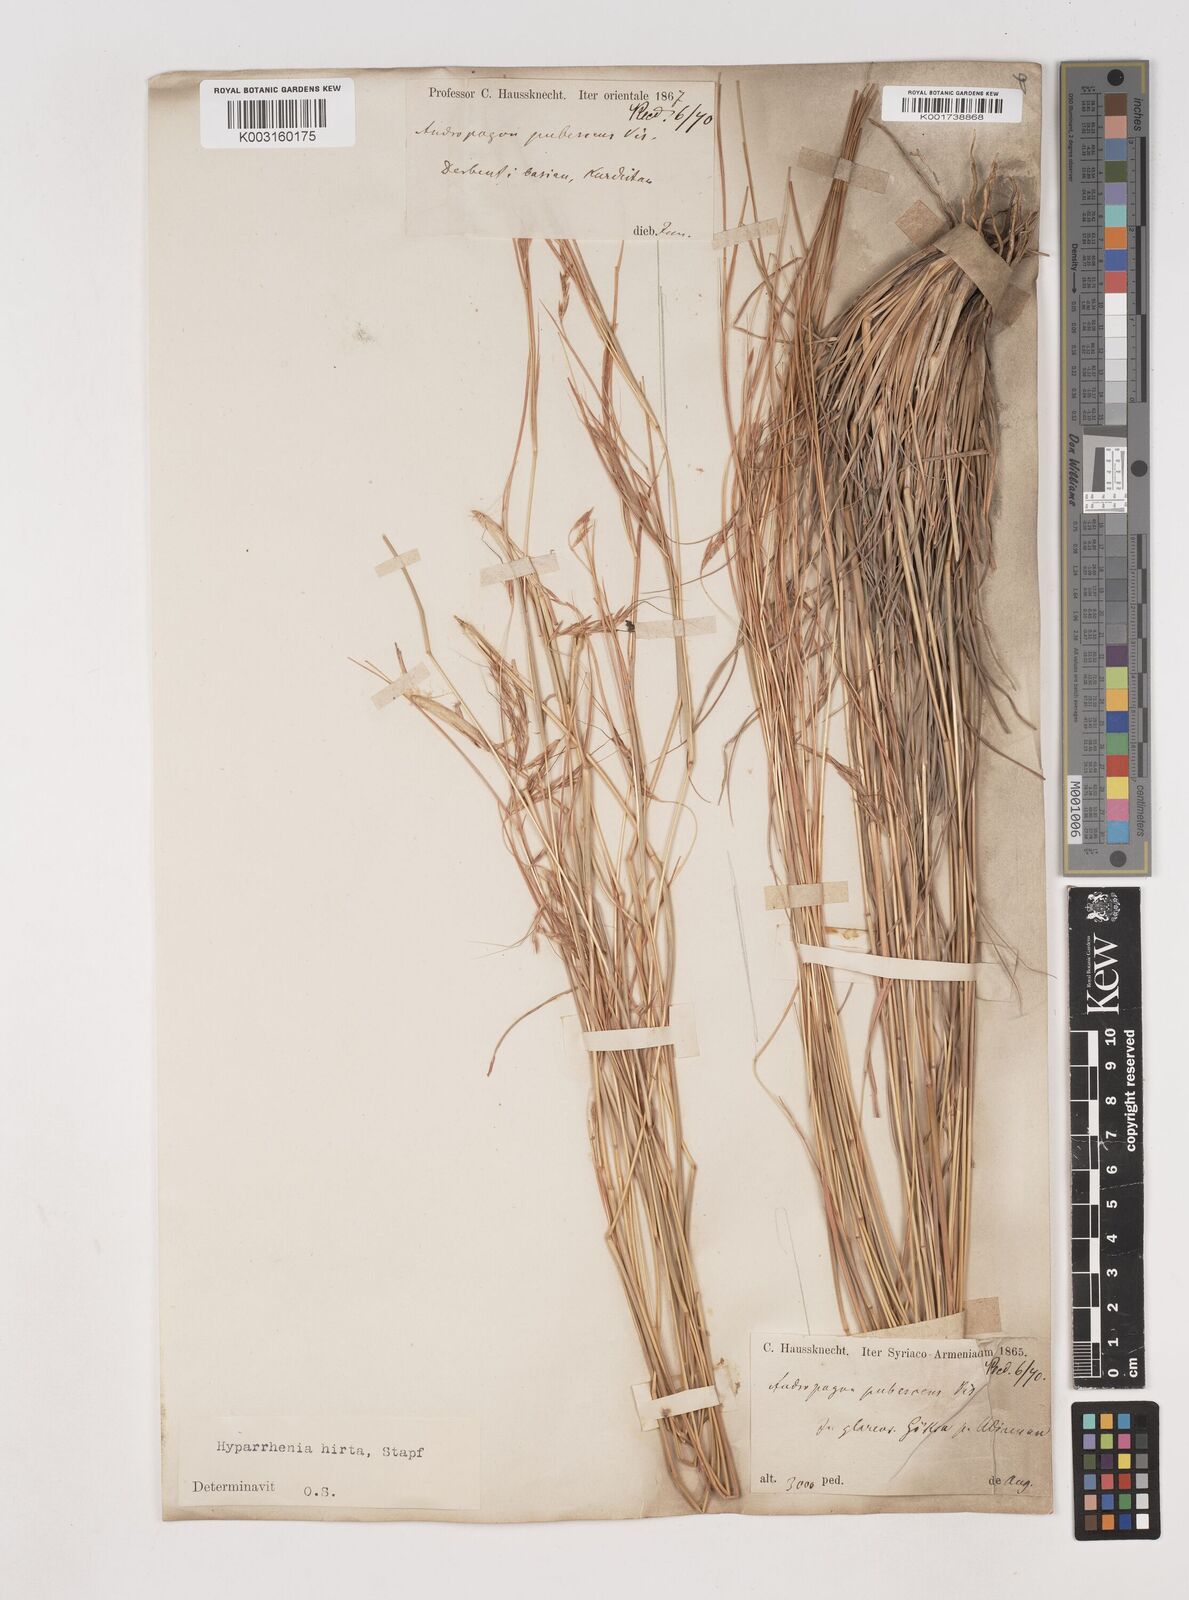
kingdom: Plantae
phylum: Tracheophyta
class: Liliopsida
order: Poales
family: Poaceae
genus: Hyparrhenia
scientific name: Hyparrhenia hirta
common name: Thatching grass
